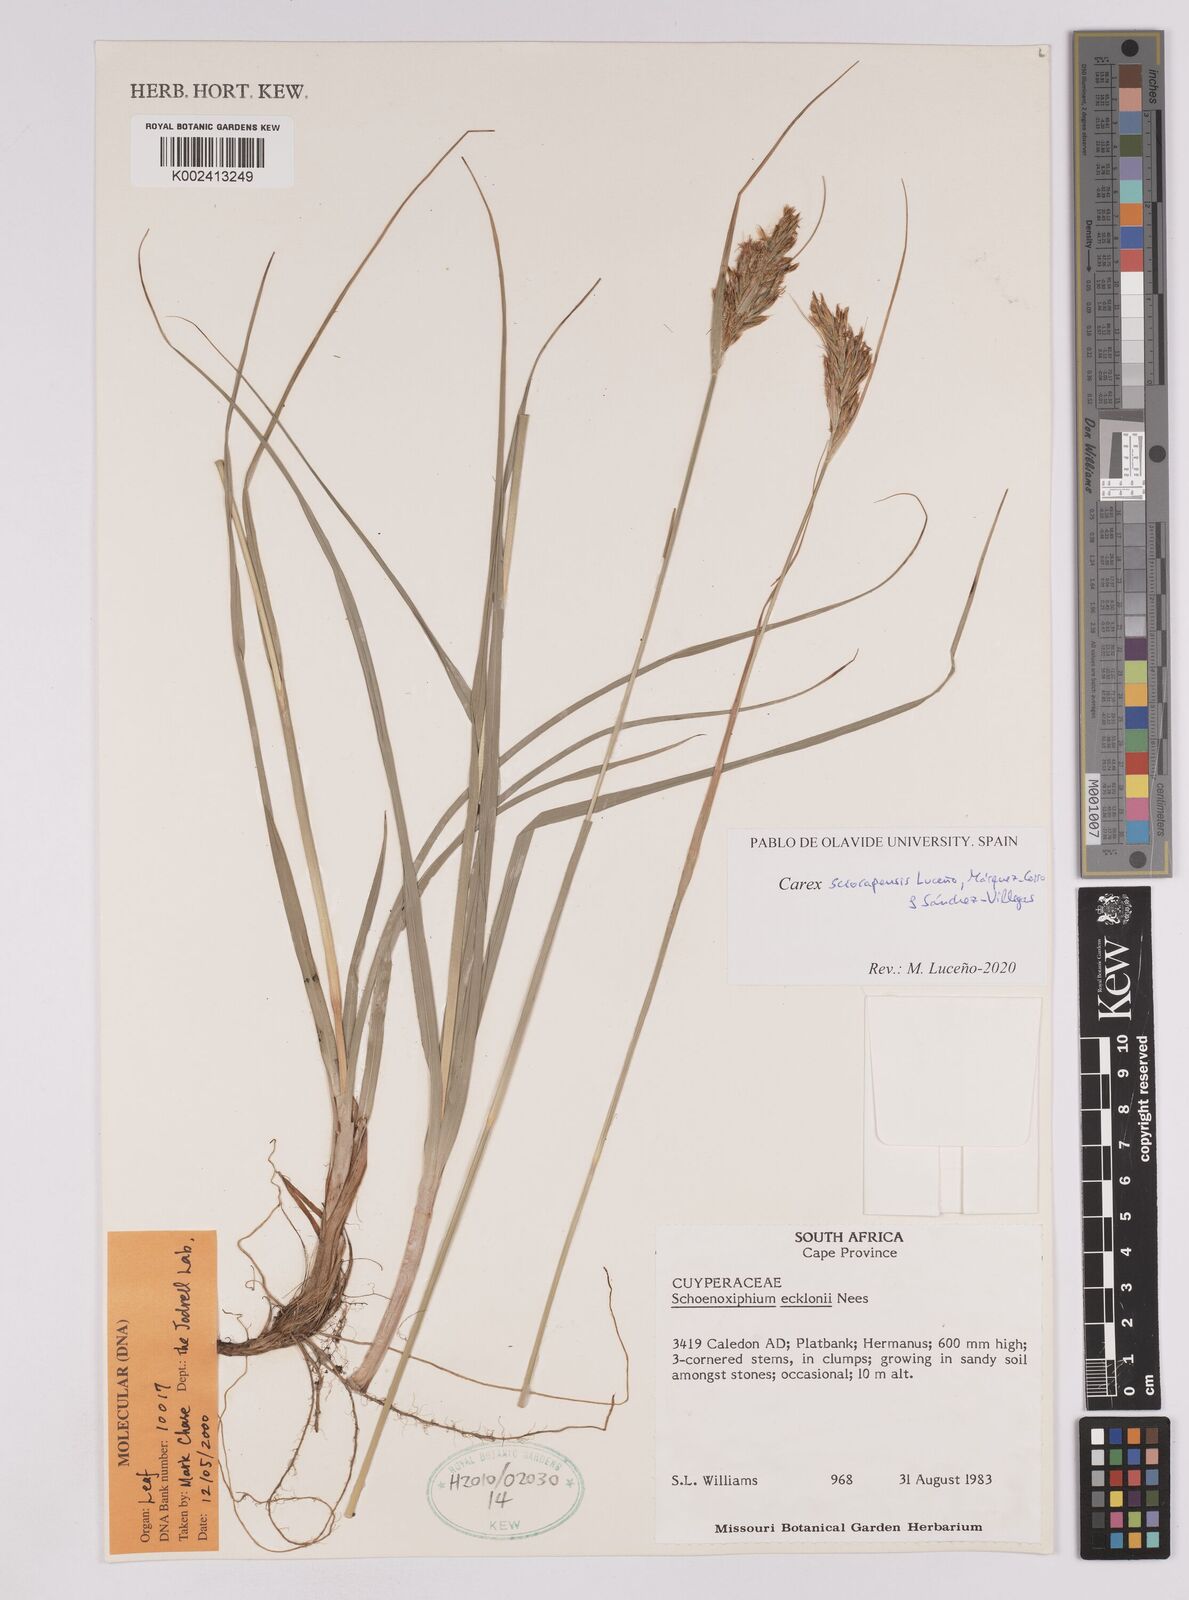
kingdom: Plantae
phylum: Tracheophyta
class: Liliopsida
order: Poales
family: Cyperaceae
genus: Carex
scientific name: Carex lancea
